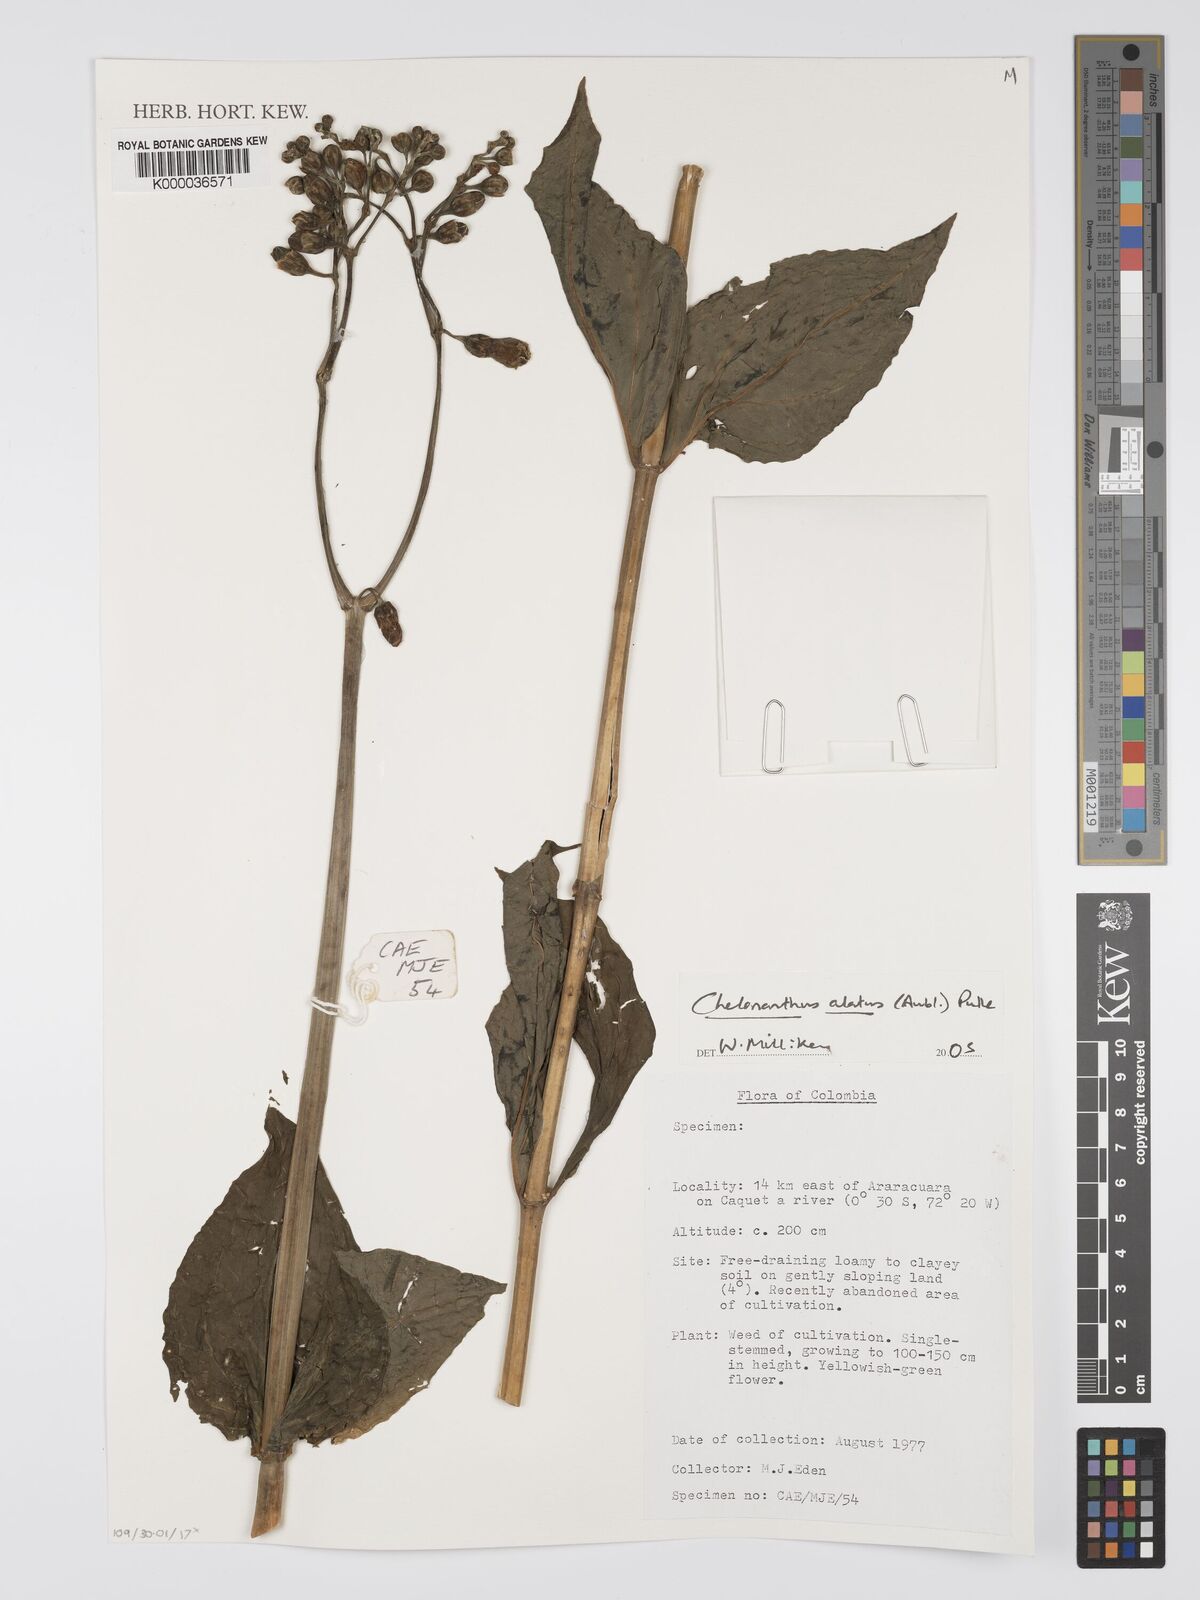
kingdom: Plantae
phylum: Tracheophyta
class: Magnoliopsida
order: Gentianales
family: Gentianaceae
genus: Chelonanthus
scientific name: Chelonanthus alatus
